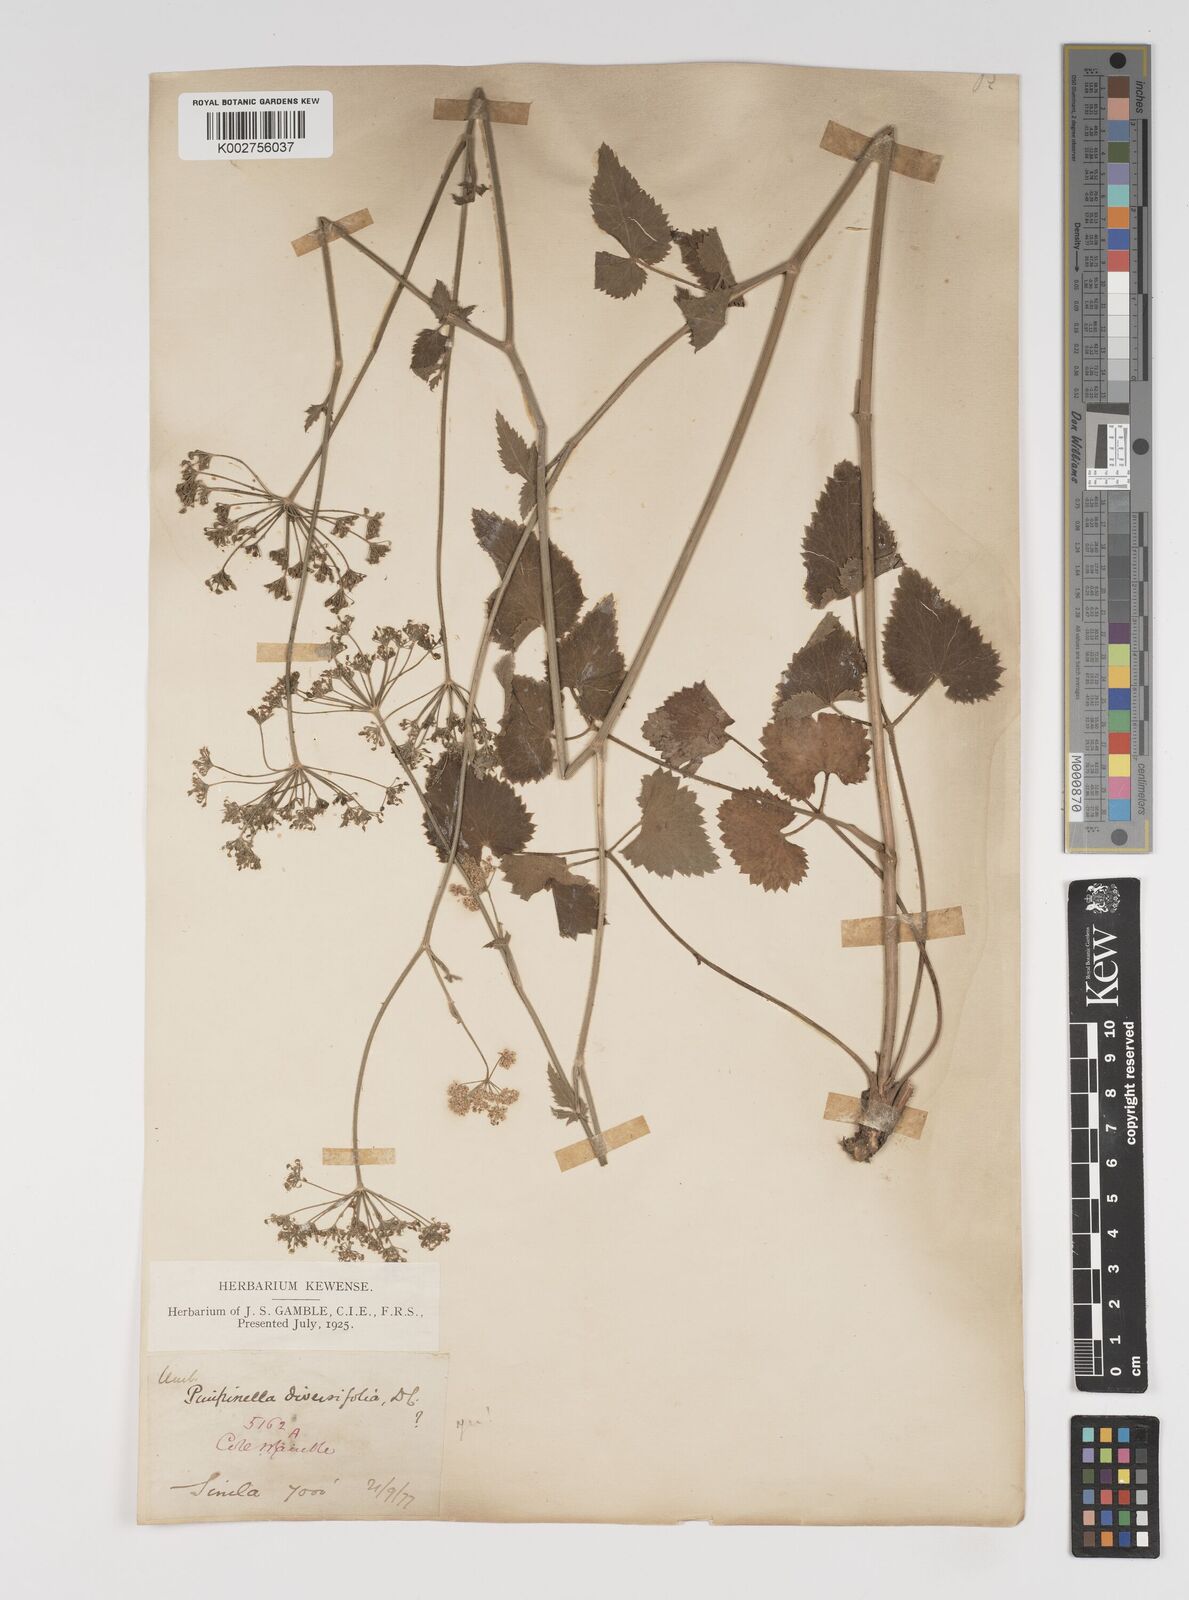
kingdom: Plantae
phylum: Tracheophyta
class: Magnoliopsida
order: Apiales
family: Apiaceae
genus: Pimpinella
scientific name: Pimpinella diversifolia
